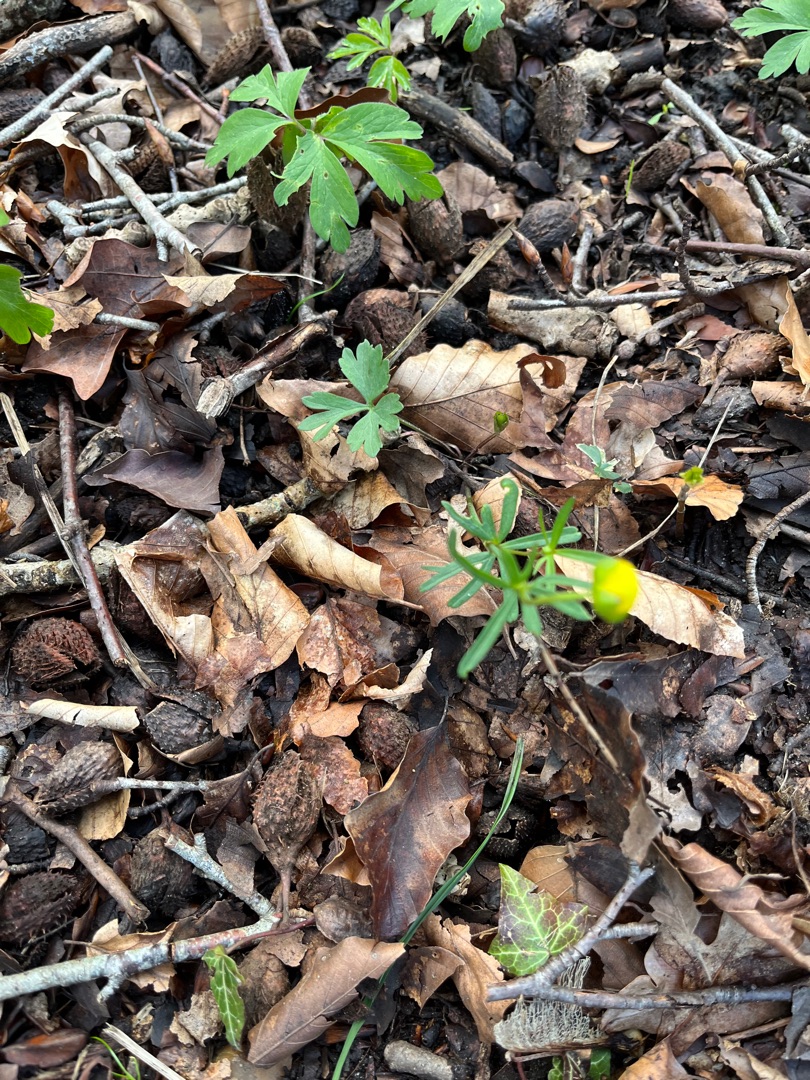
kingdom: Plantae
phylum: Tracheophyta
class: Magnoliopsida
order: Ranunculales
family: Ranunculaceae
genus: Ranunculus
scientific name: Ranunculus auricomus
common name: Nyrebladet ranunkel
